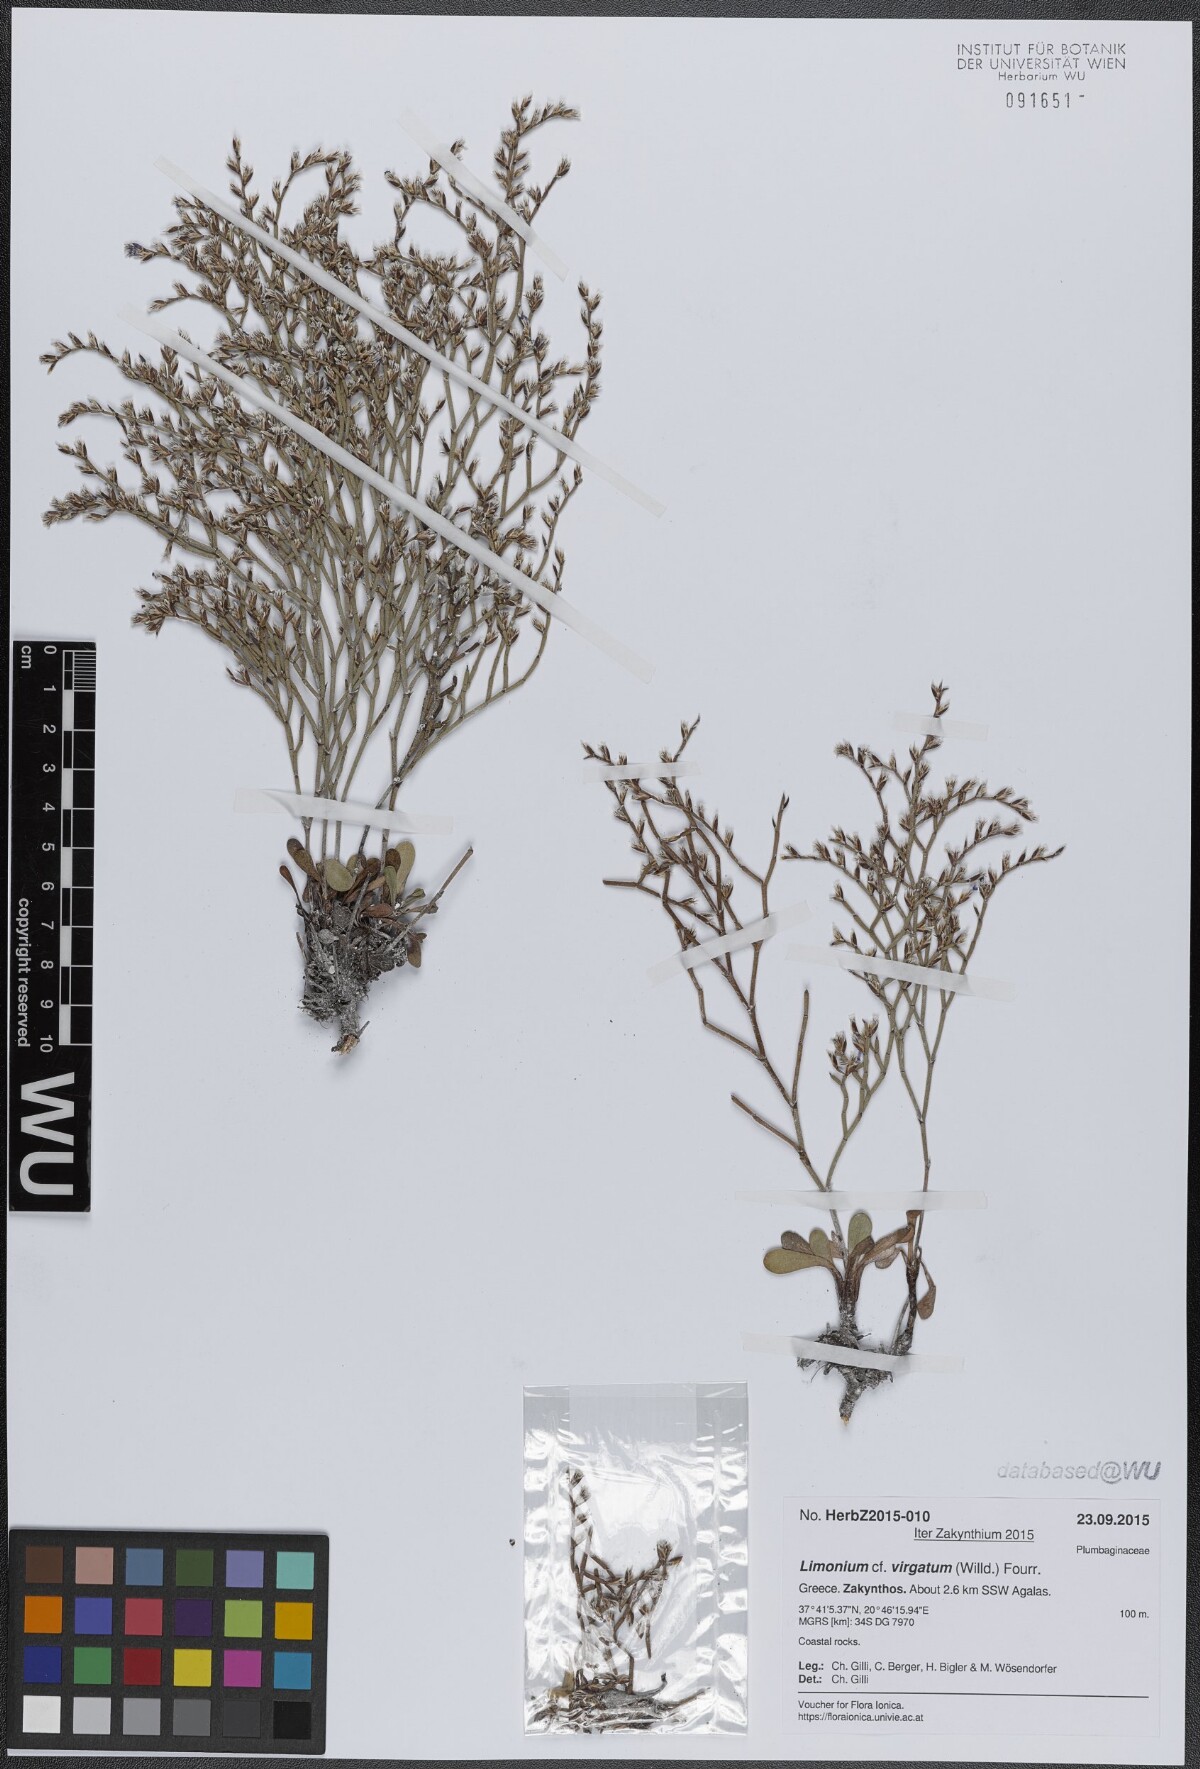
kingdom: Plantae
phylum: Tracheophyta
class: Magnoliopsida
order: Caryophyllales
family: Plumbaginaceae
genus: Limonium
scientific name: Limonium virgatum
